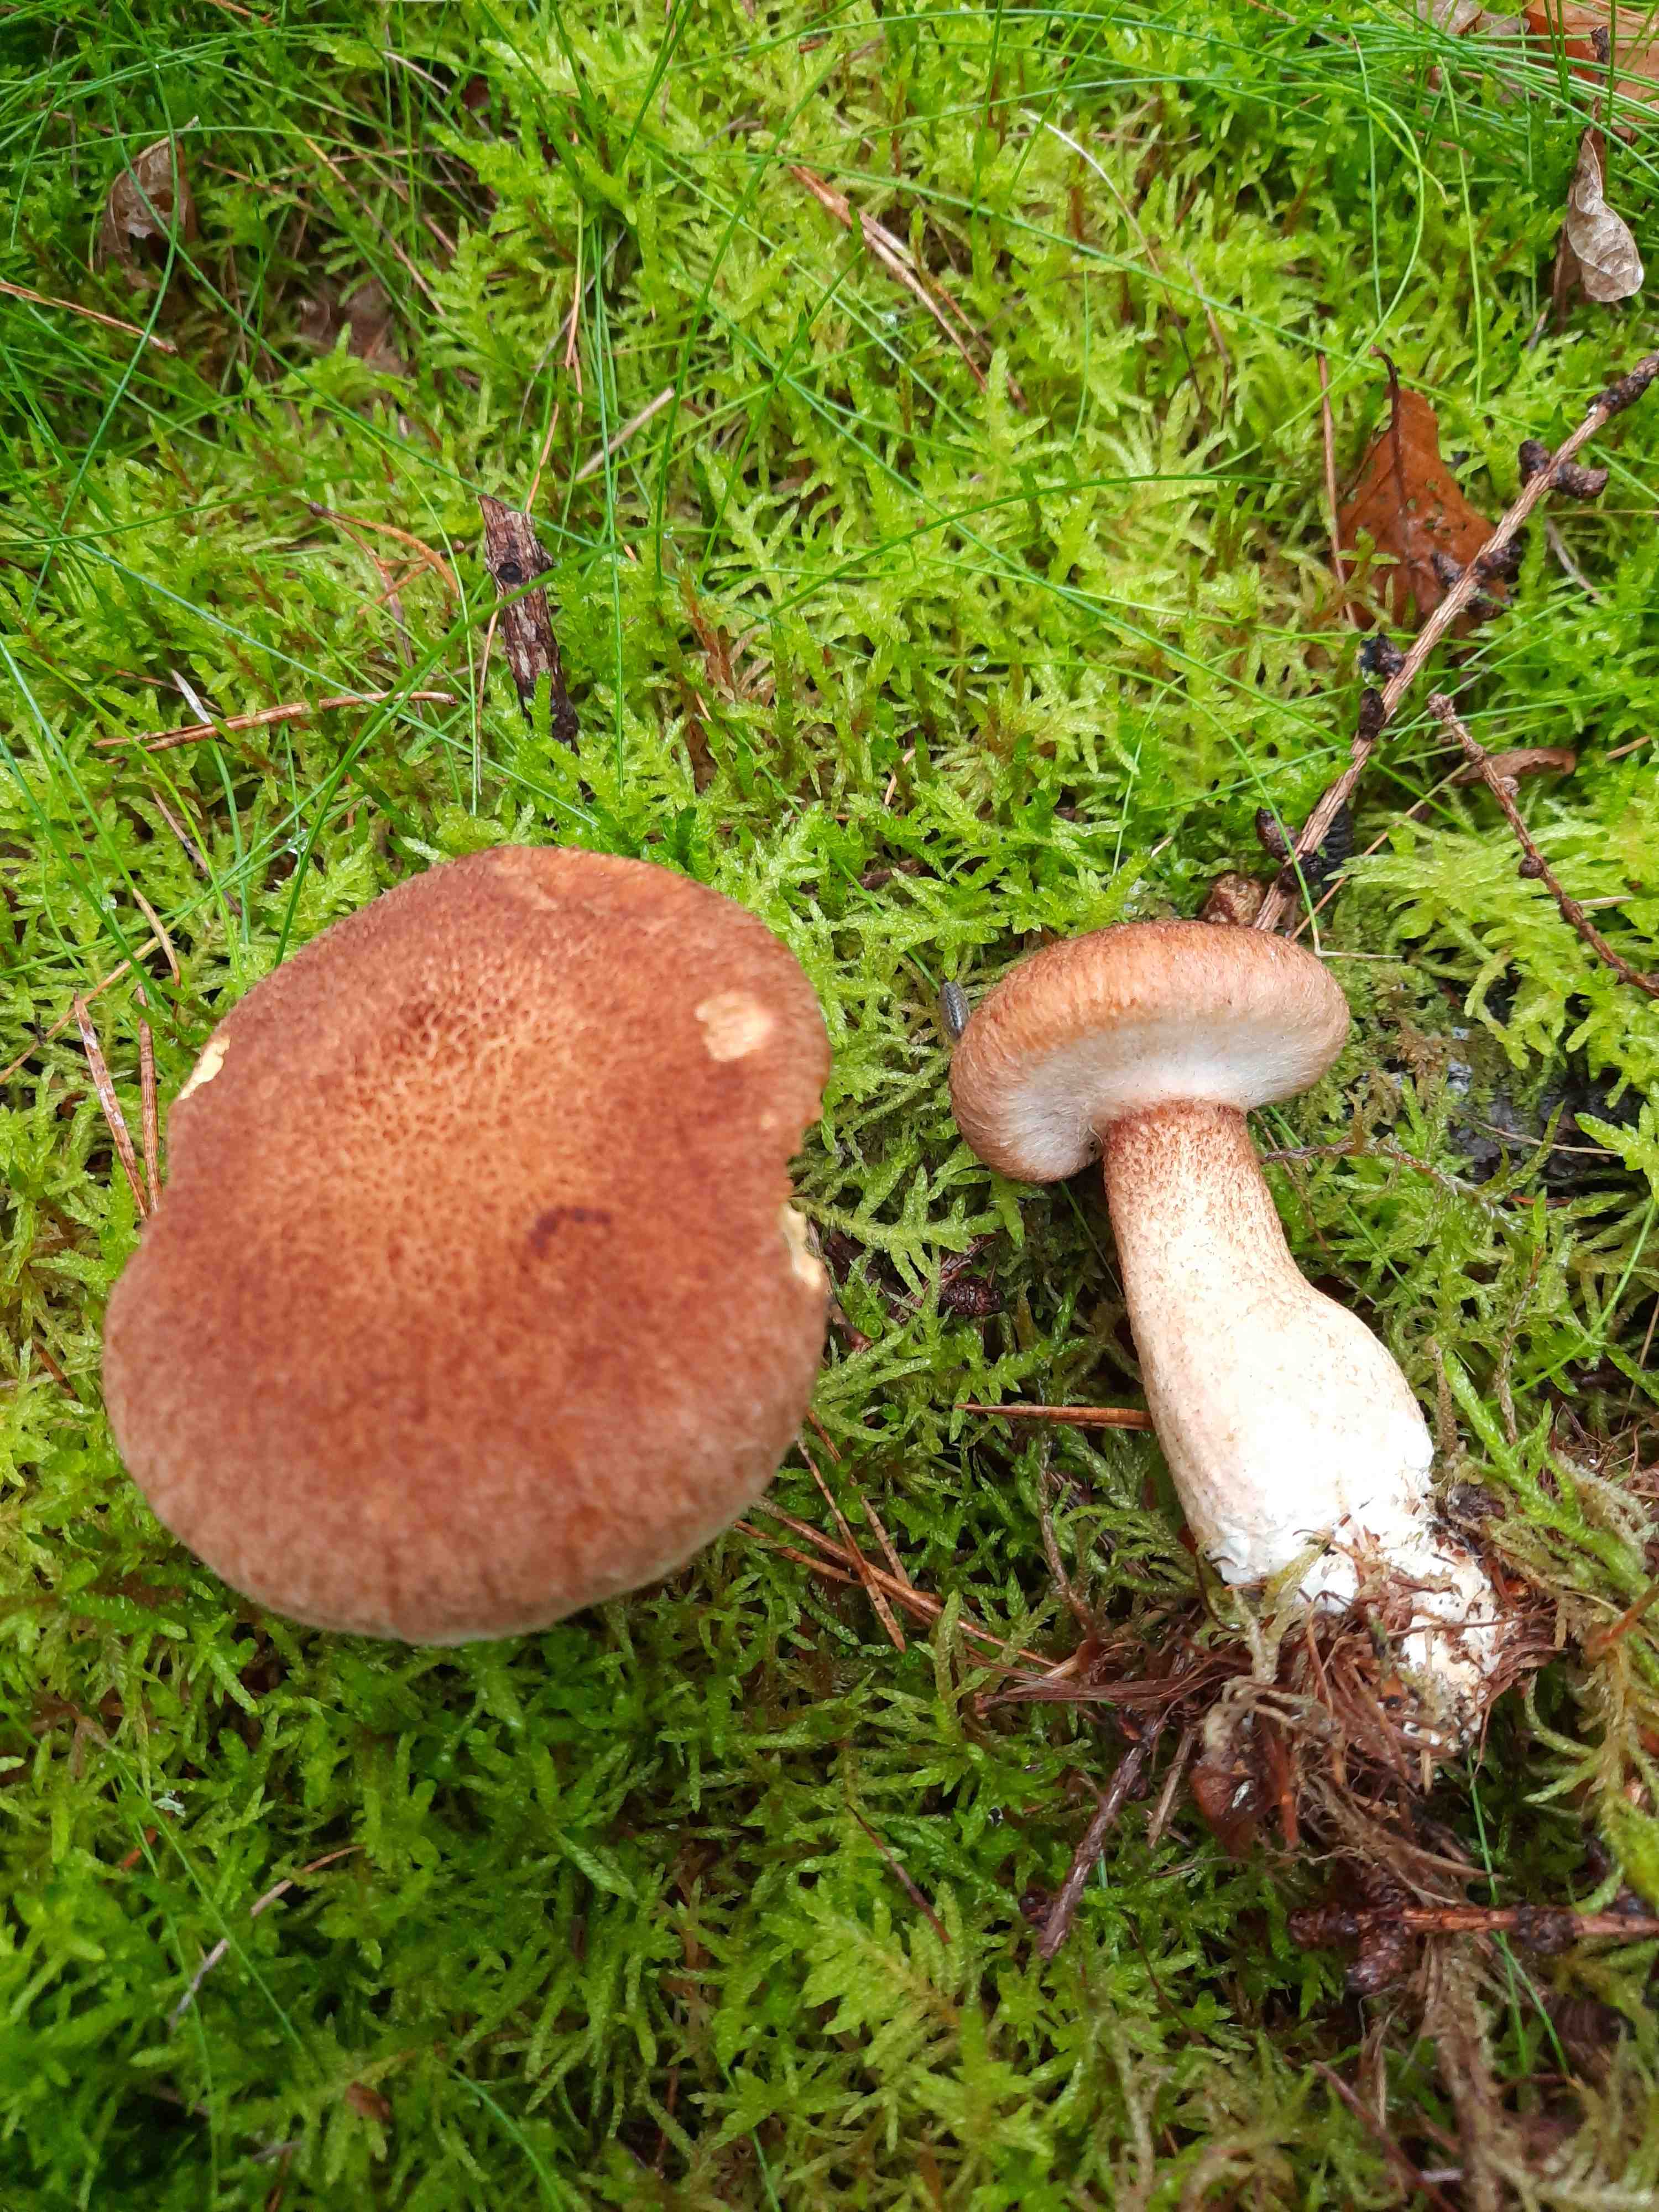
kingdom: Fungi
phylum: Basidiomycota
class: Agaricomycetes
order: Boletales
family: Suillaceae
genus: Suillus
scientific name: Suillus cavipes
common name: hulstokket slimrørhat
